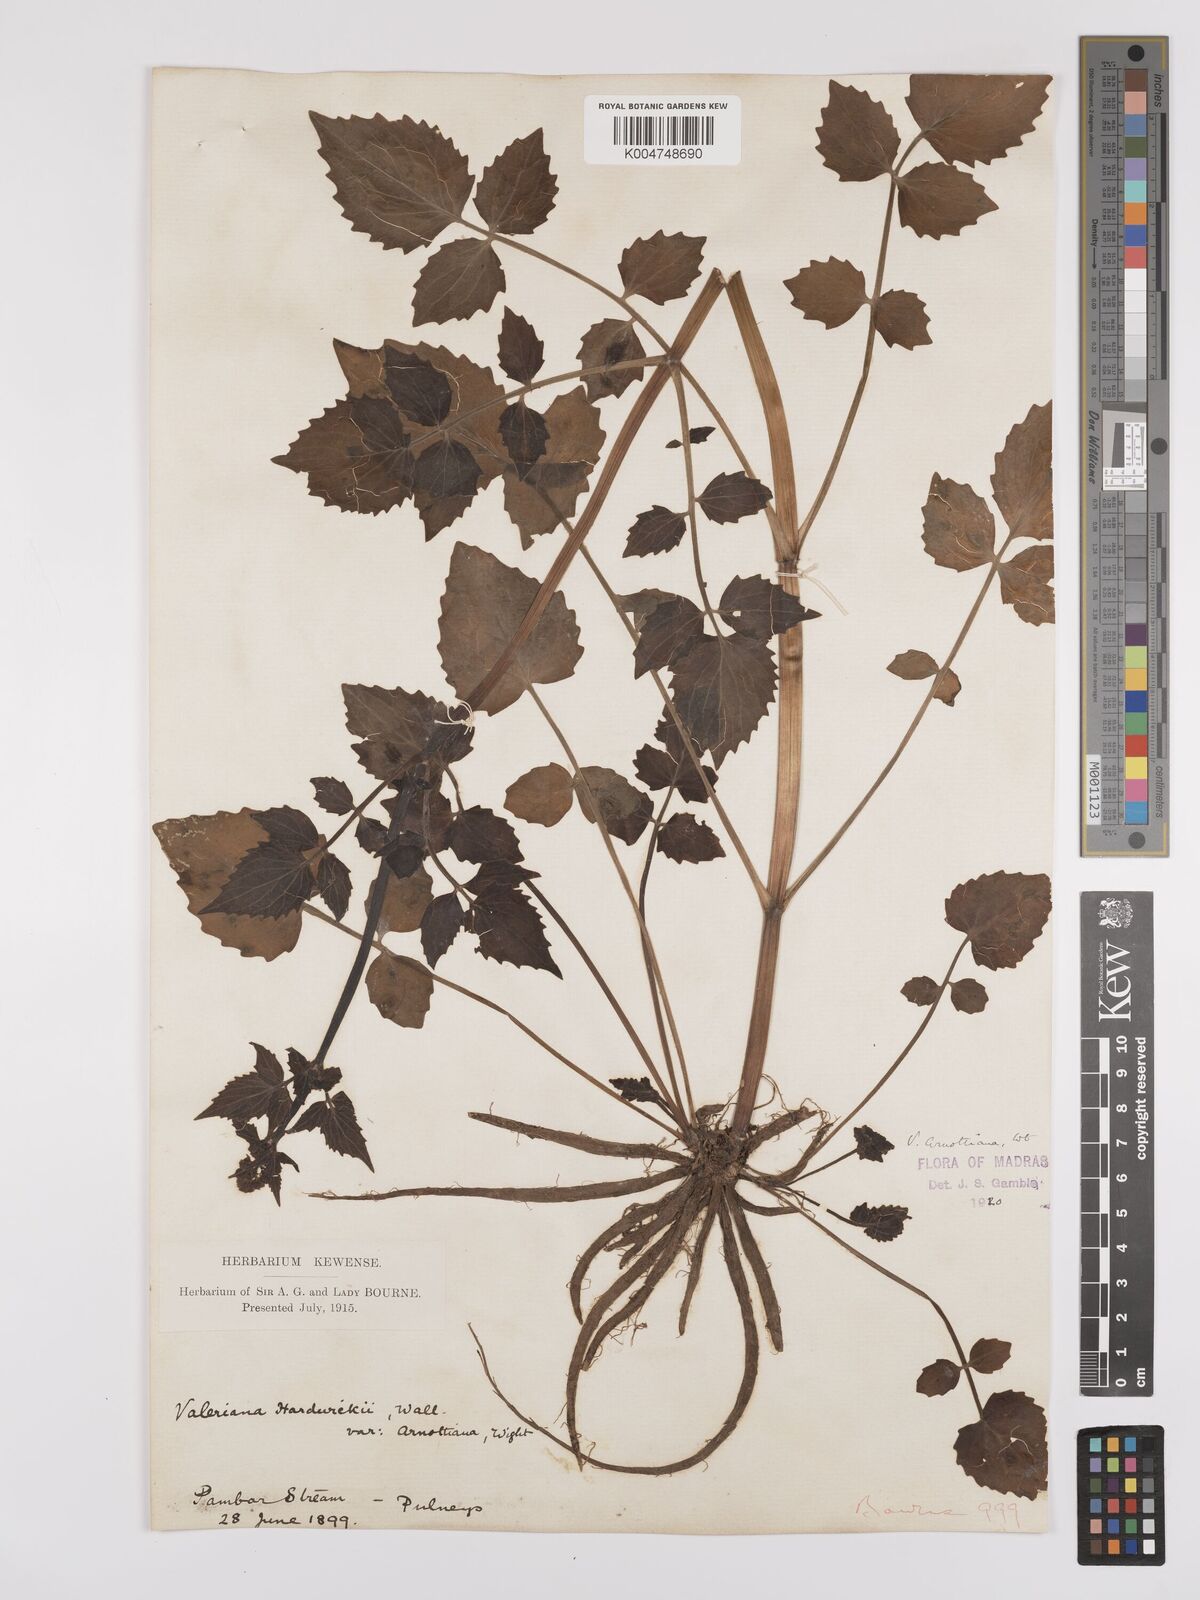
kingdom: Plantae
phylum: Tracheophyta
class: Magnoliopsida
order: Dipsacales
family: Caprifoliaceae
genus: Valeriana
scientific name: Valeriana
